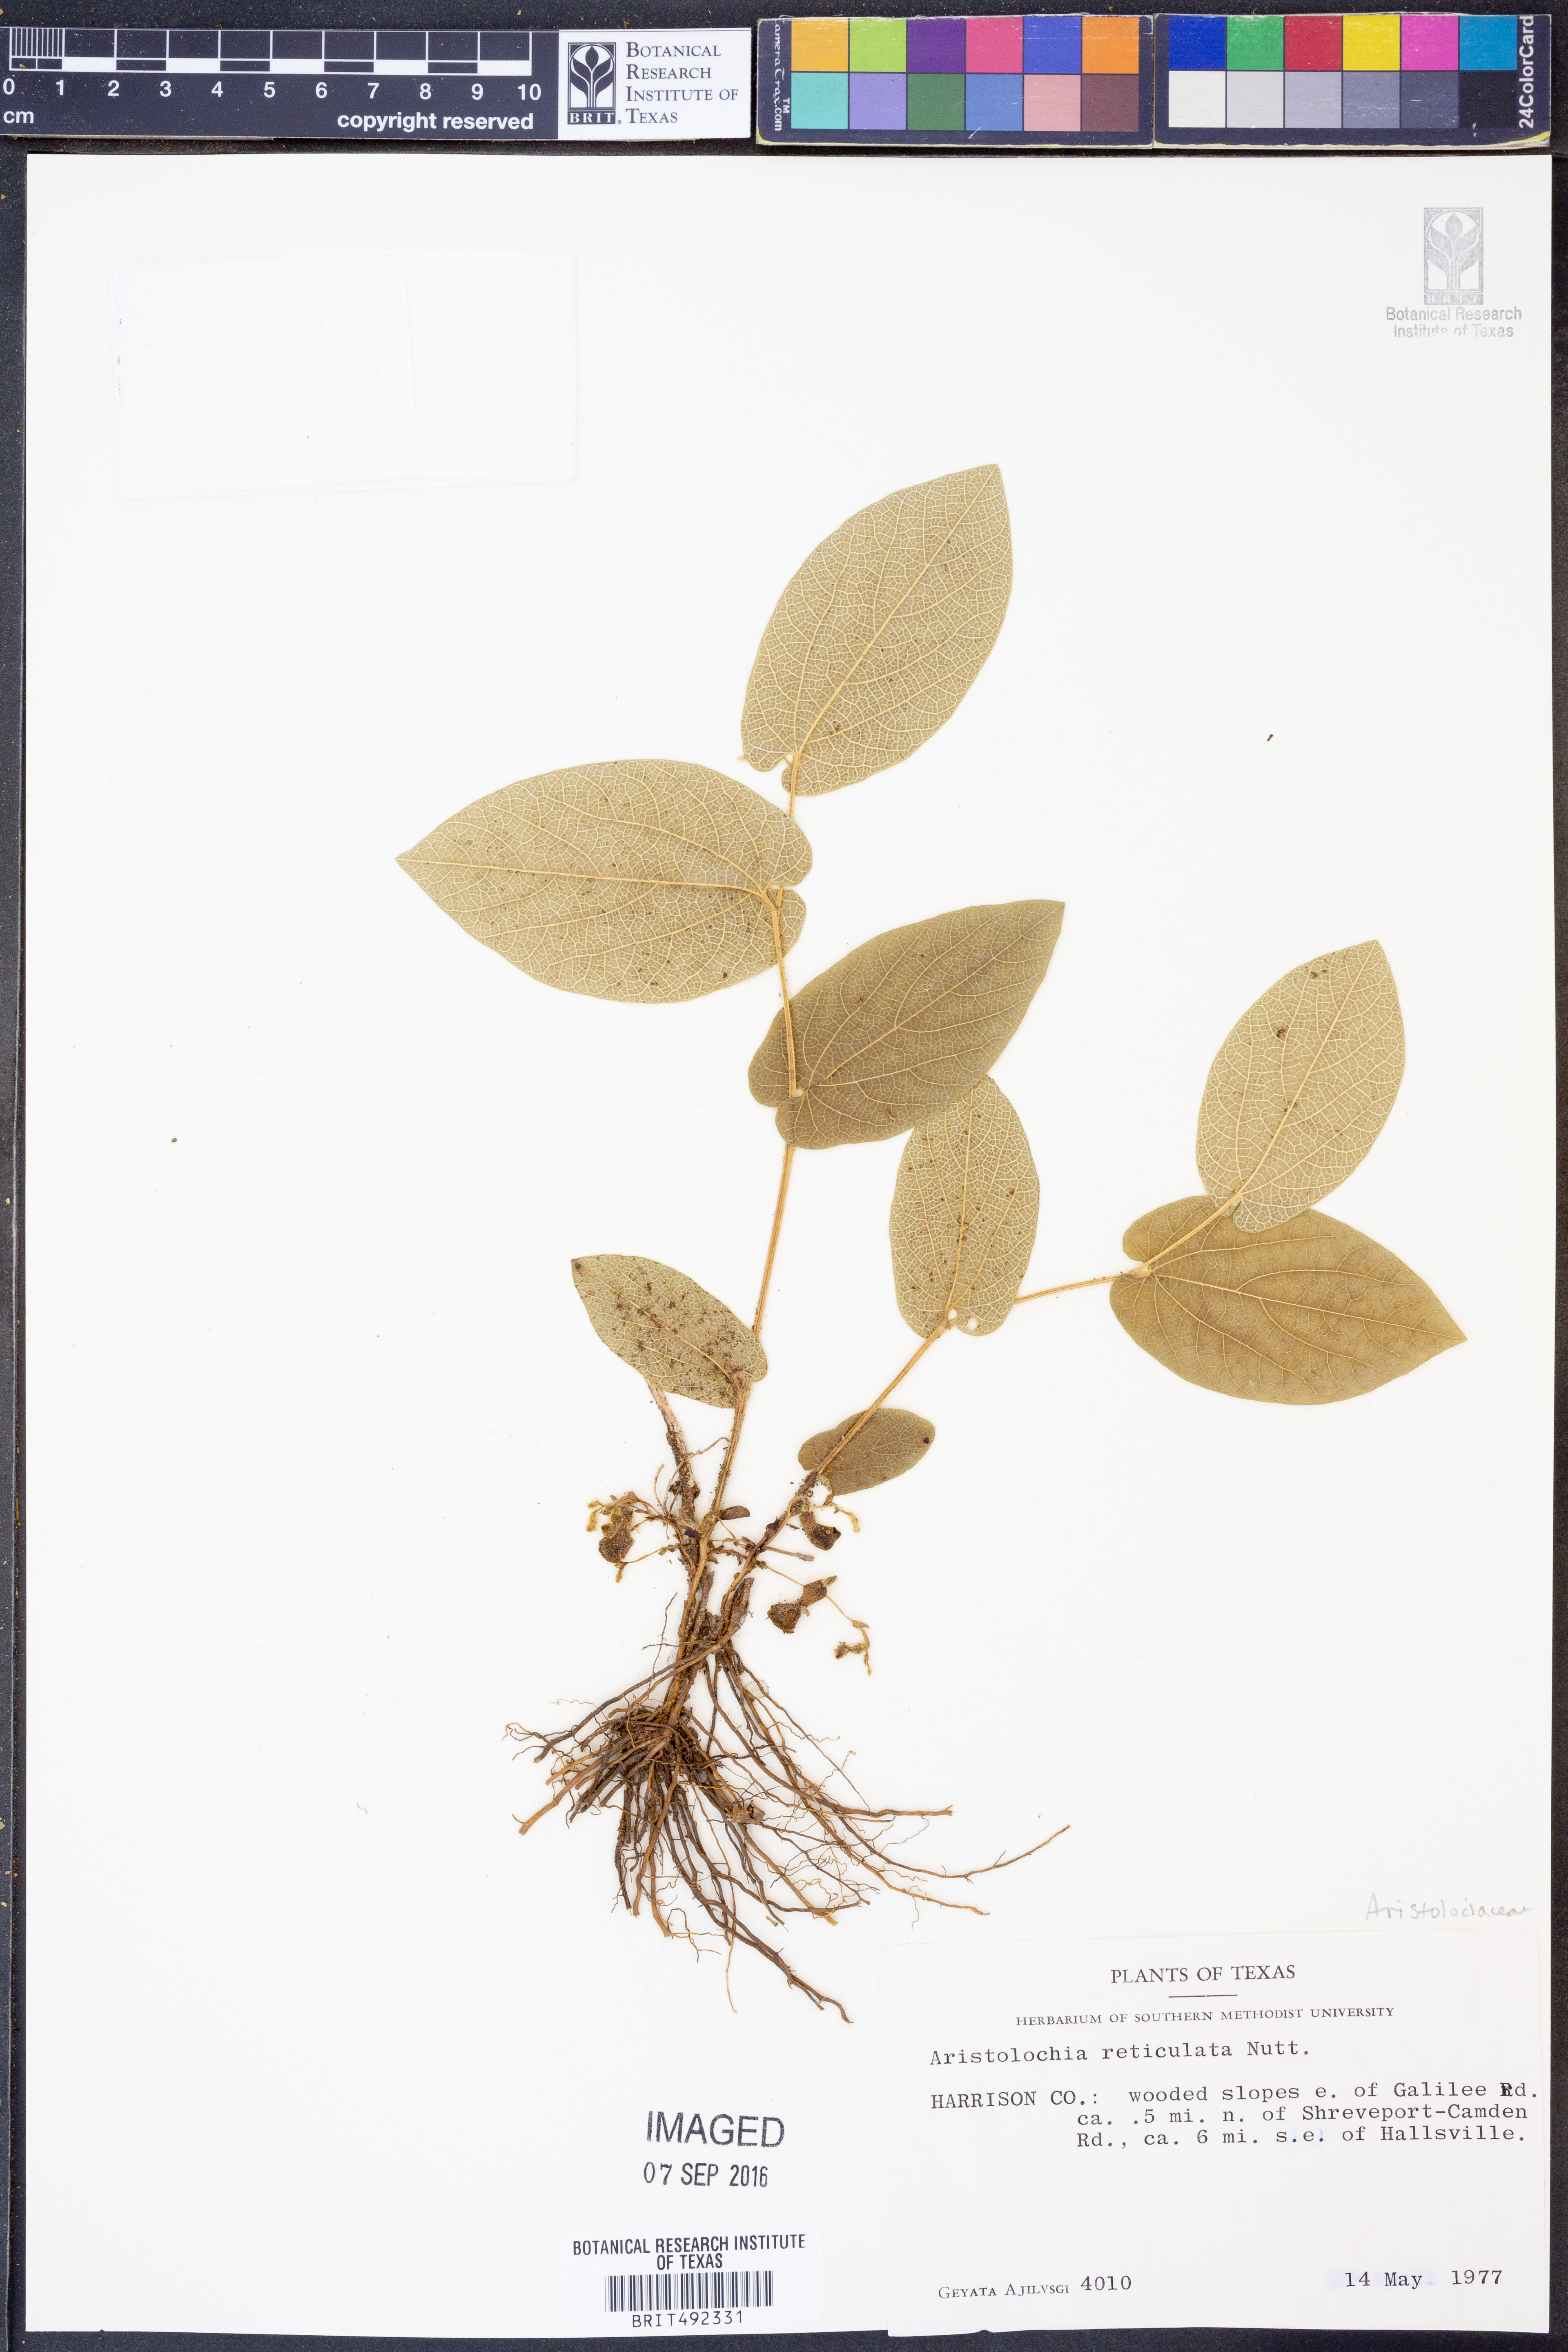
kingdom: Plantae
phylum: Tracheophyta
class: Magnoliopsida
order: Piperales
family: Aristolochiaceae
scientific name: Aristolochiaceae
